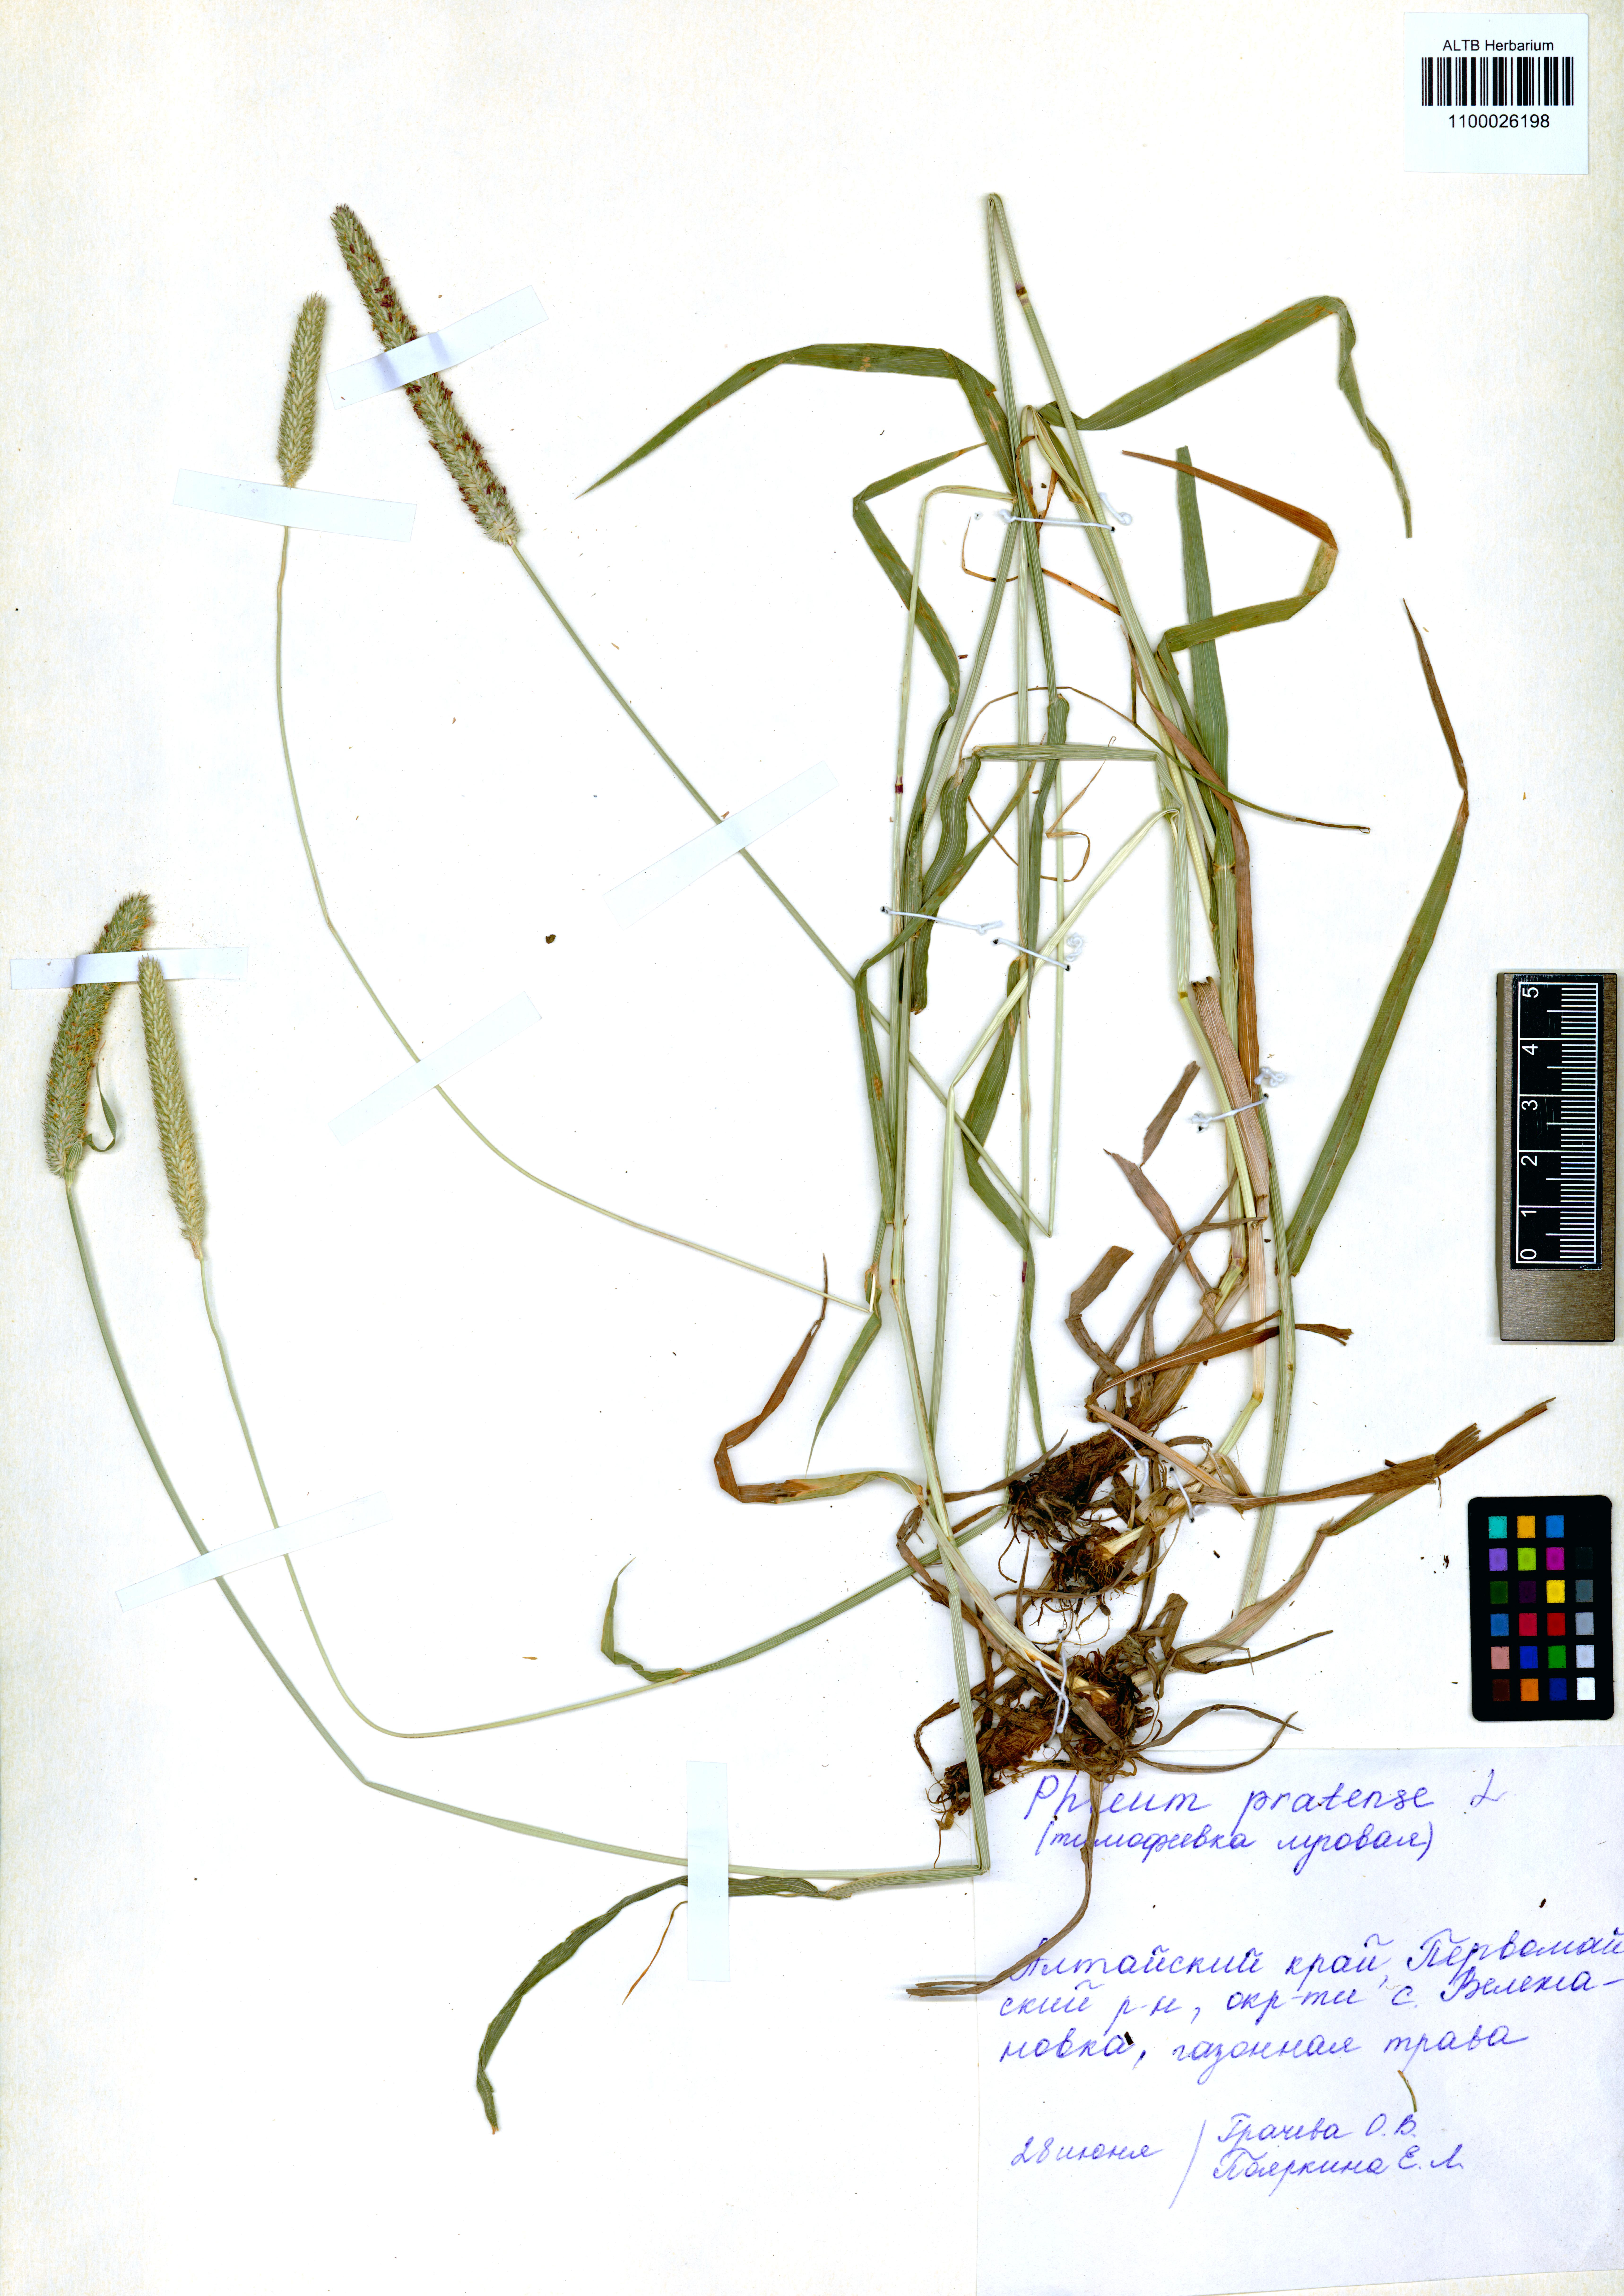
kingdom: Plantae
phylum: Tracheophyta
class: Liliopsida
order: Poales
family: Poaceae
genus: Phleum
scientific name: Phleum pratense
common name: Timothy grass
